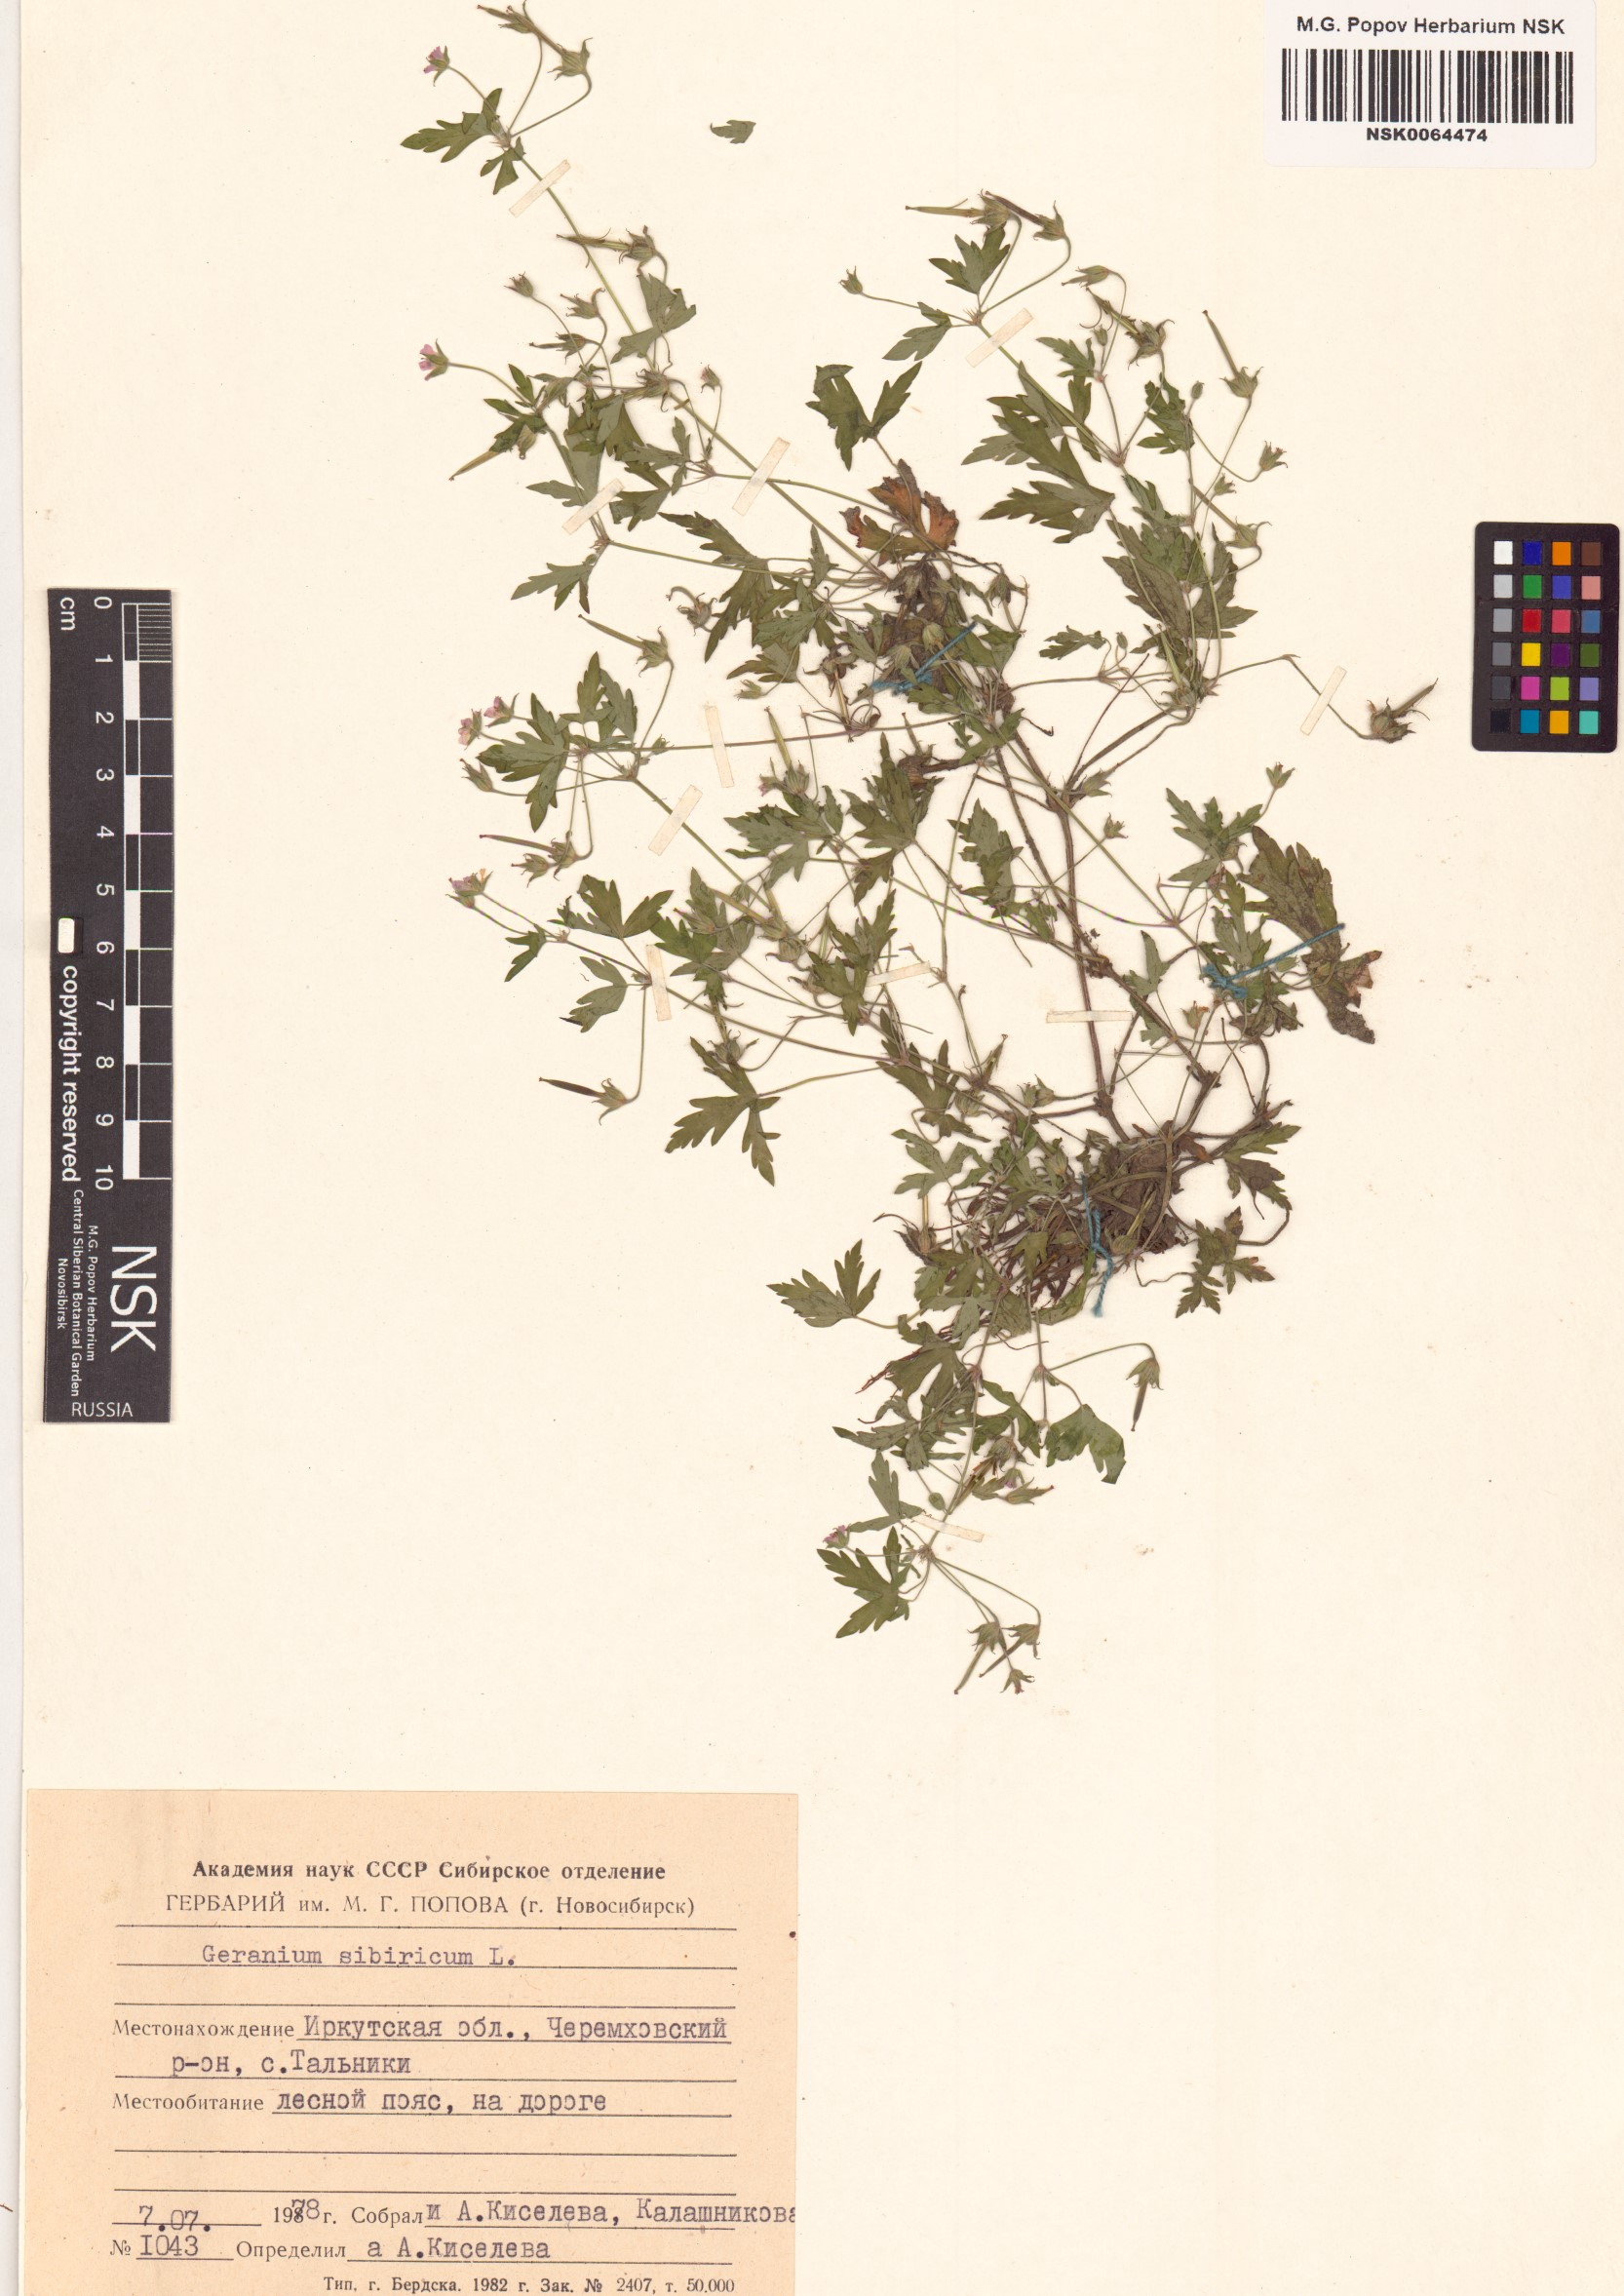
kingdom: Plantae
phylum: Tracheophyta
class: Magnoliopsida
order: Geraniales
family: Geraniaceae
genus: Geranium
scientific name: Geranium sibiricum
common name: Siberian crane's-bill
